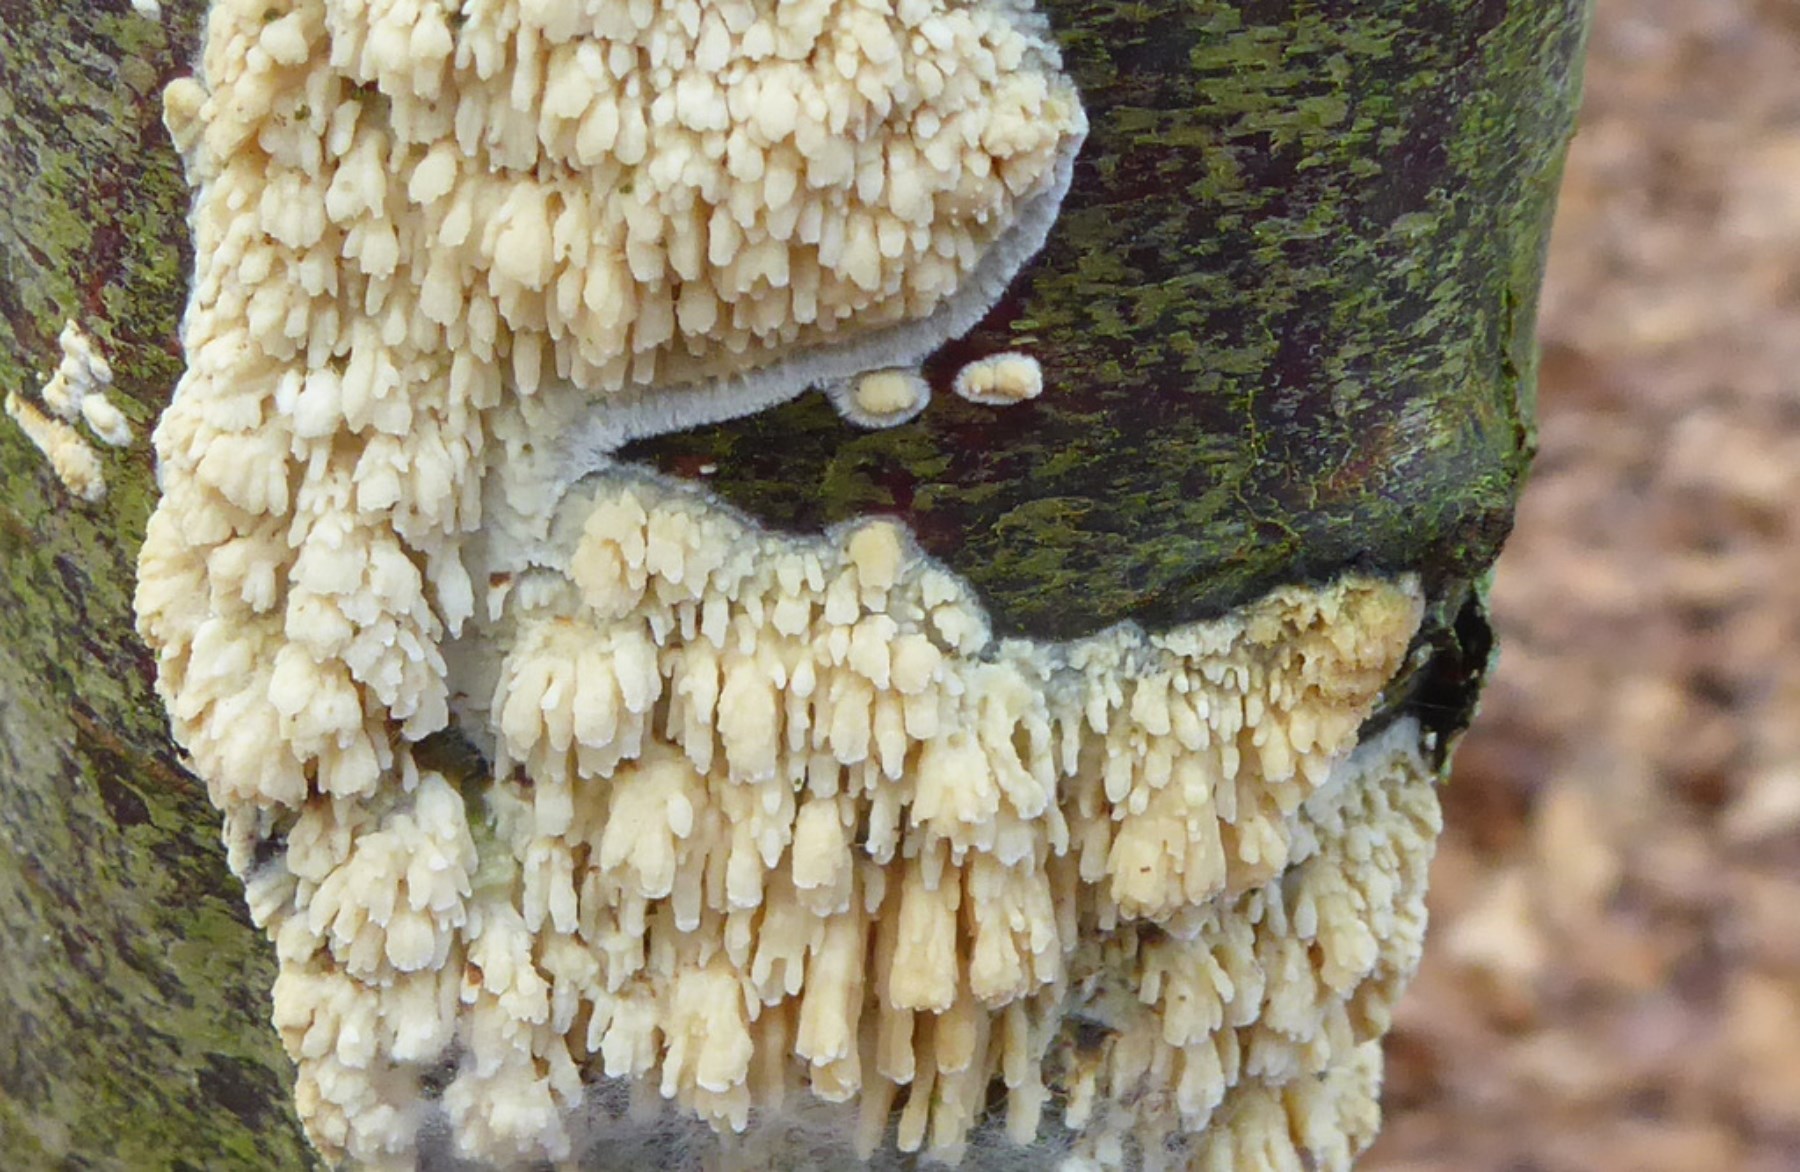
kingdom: Fungi
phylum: Basidiomycota
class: Agaricomycetes
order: Hymenochaetales
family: Schizoporaceae
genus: Xylodon
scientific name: Xylodon radula
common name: grovtandet kalkskind
